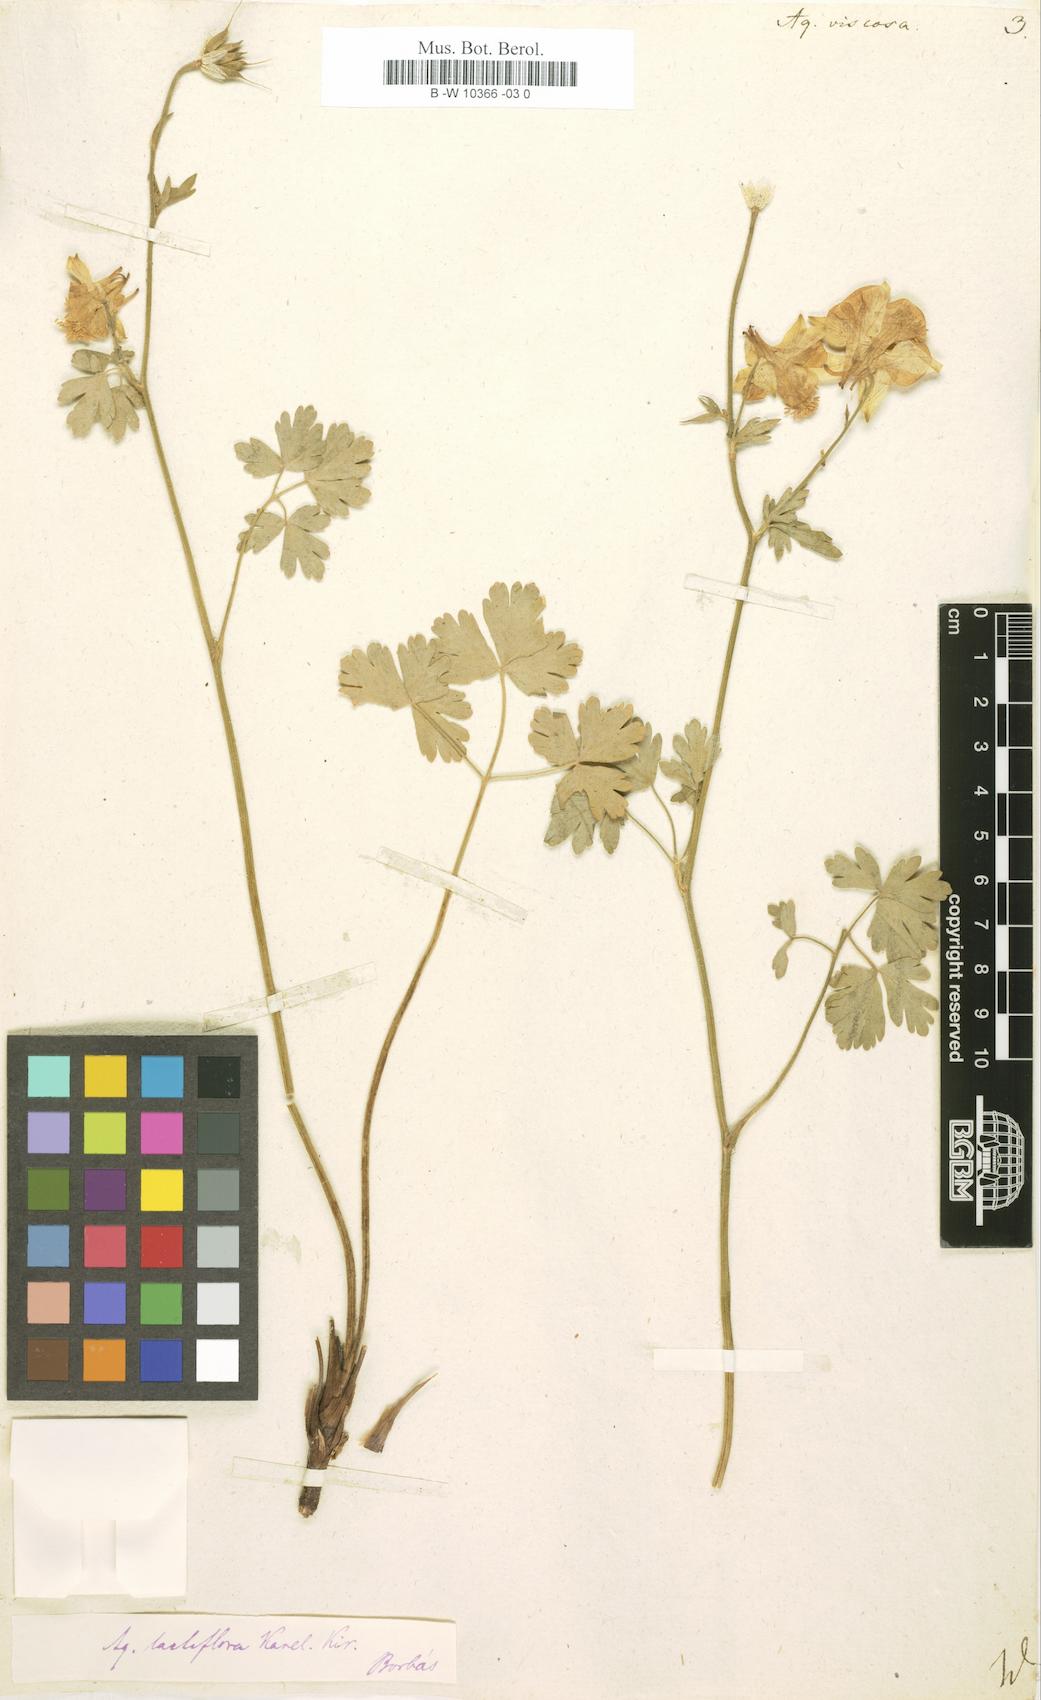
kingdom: Plantae
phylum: Tracheophyta
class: Magnoliopsida
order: Ranunculales
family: Ranunculaceae
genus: Aquilegia
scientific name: Aquilegia viscosa
